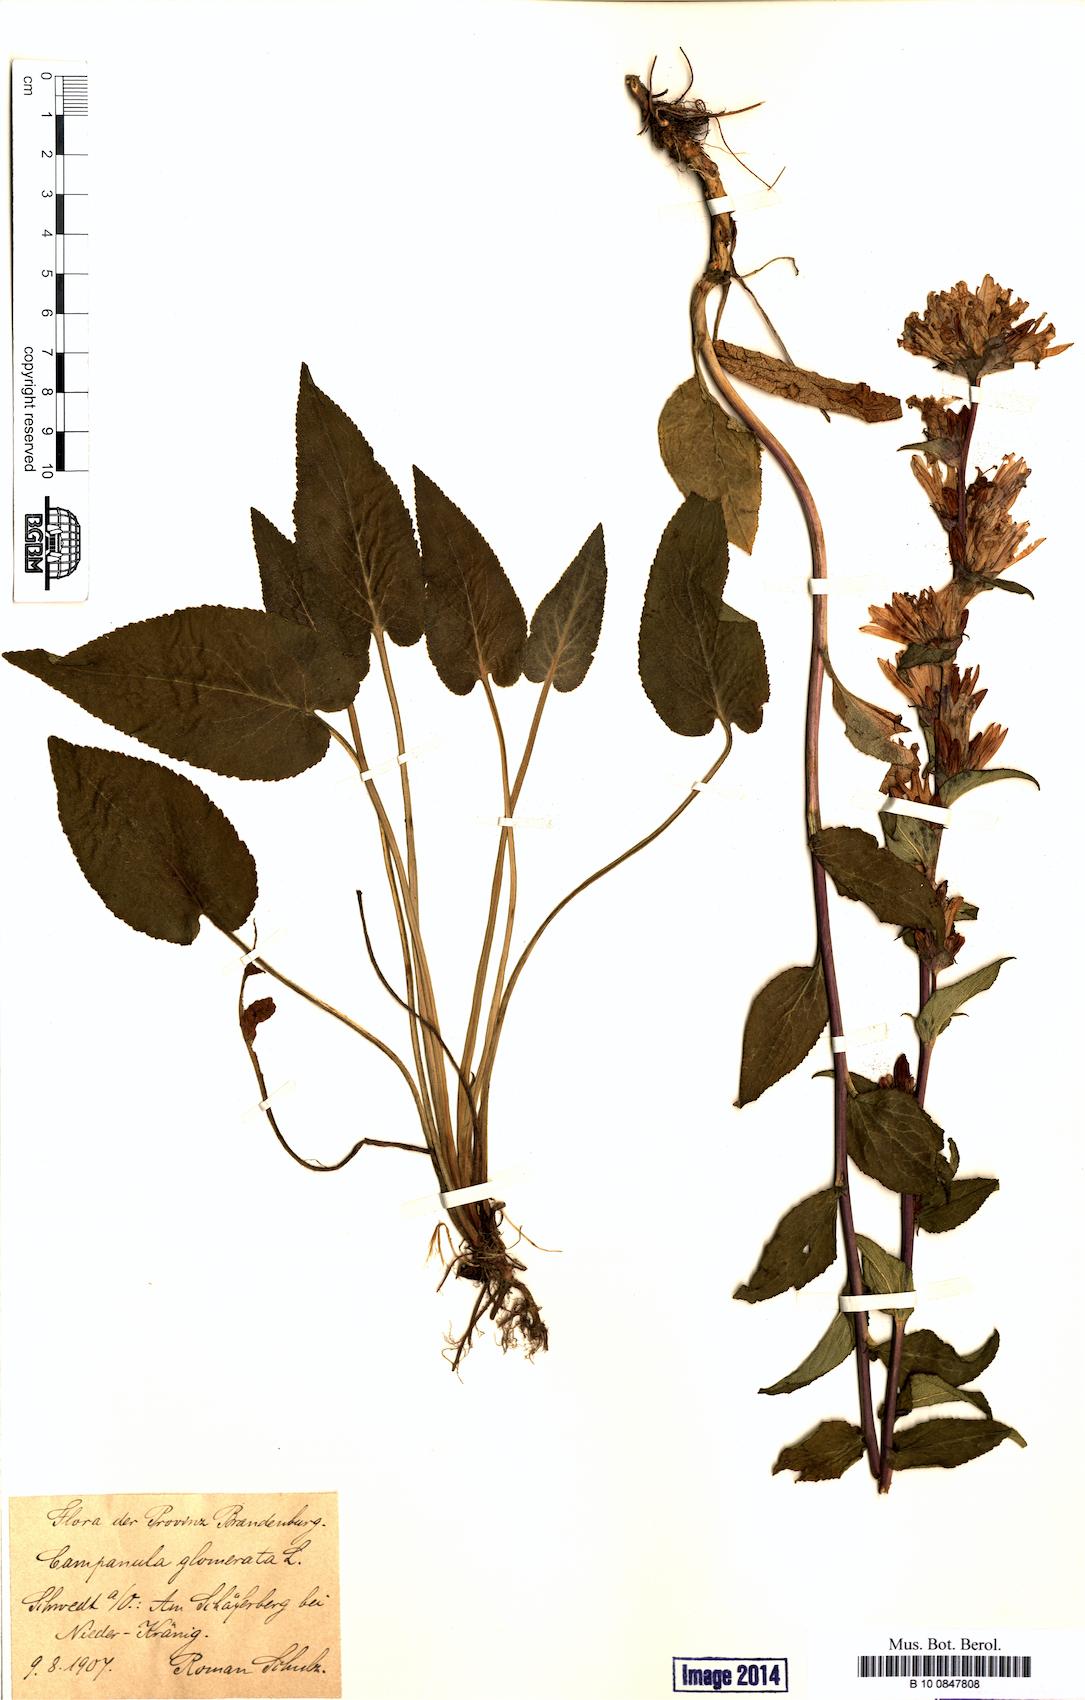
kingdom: Plantae
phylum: Tracheophyta
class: Magnoliopsida
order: Asterales
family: Campanulaceae
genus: Campanula
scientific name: Campanula glomerata
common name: Clustered bellflower
